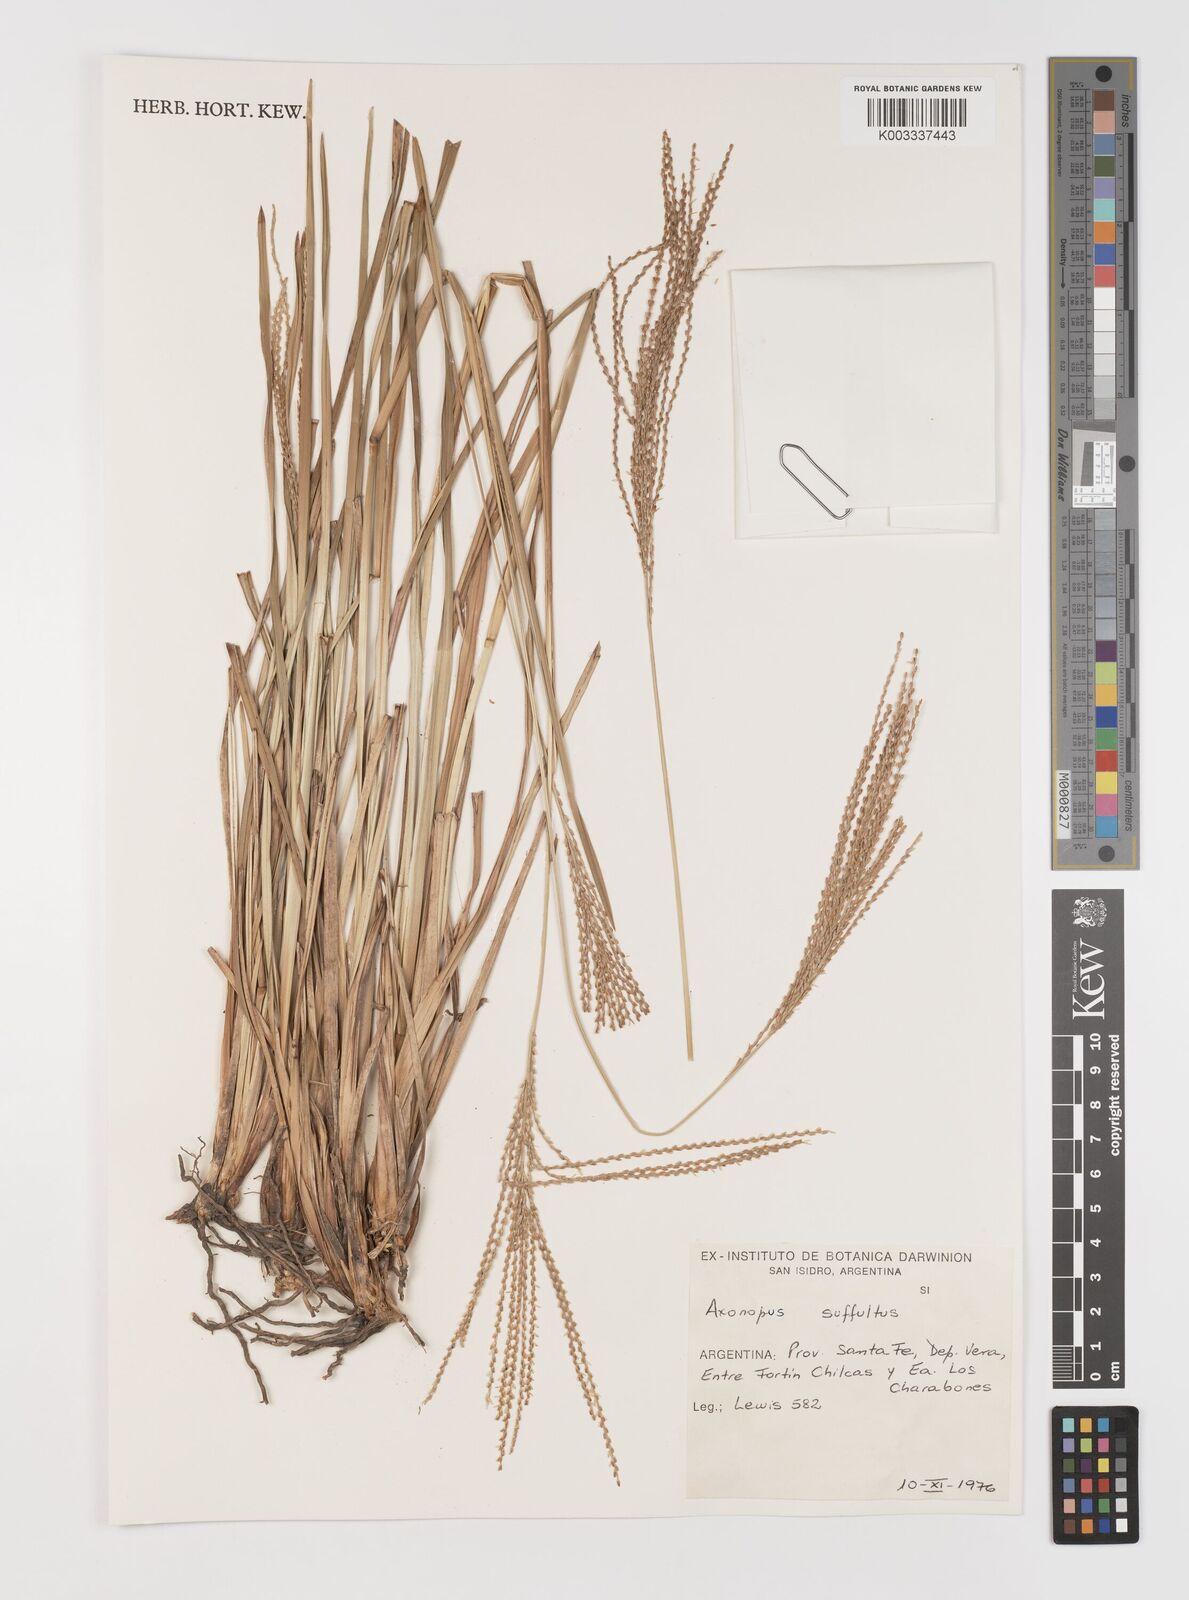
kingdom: Plantae
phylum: Tracheophyta
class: Liliopsida
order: Poales
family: Poaceae
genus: Axonopus
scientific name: Axonopus suffultus
